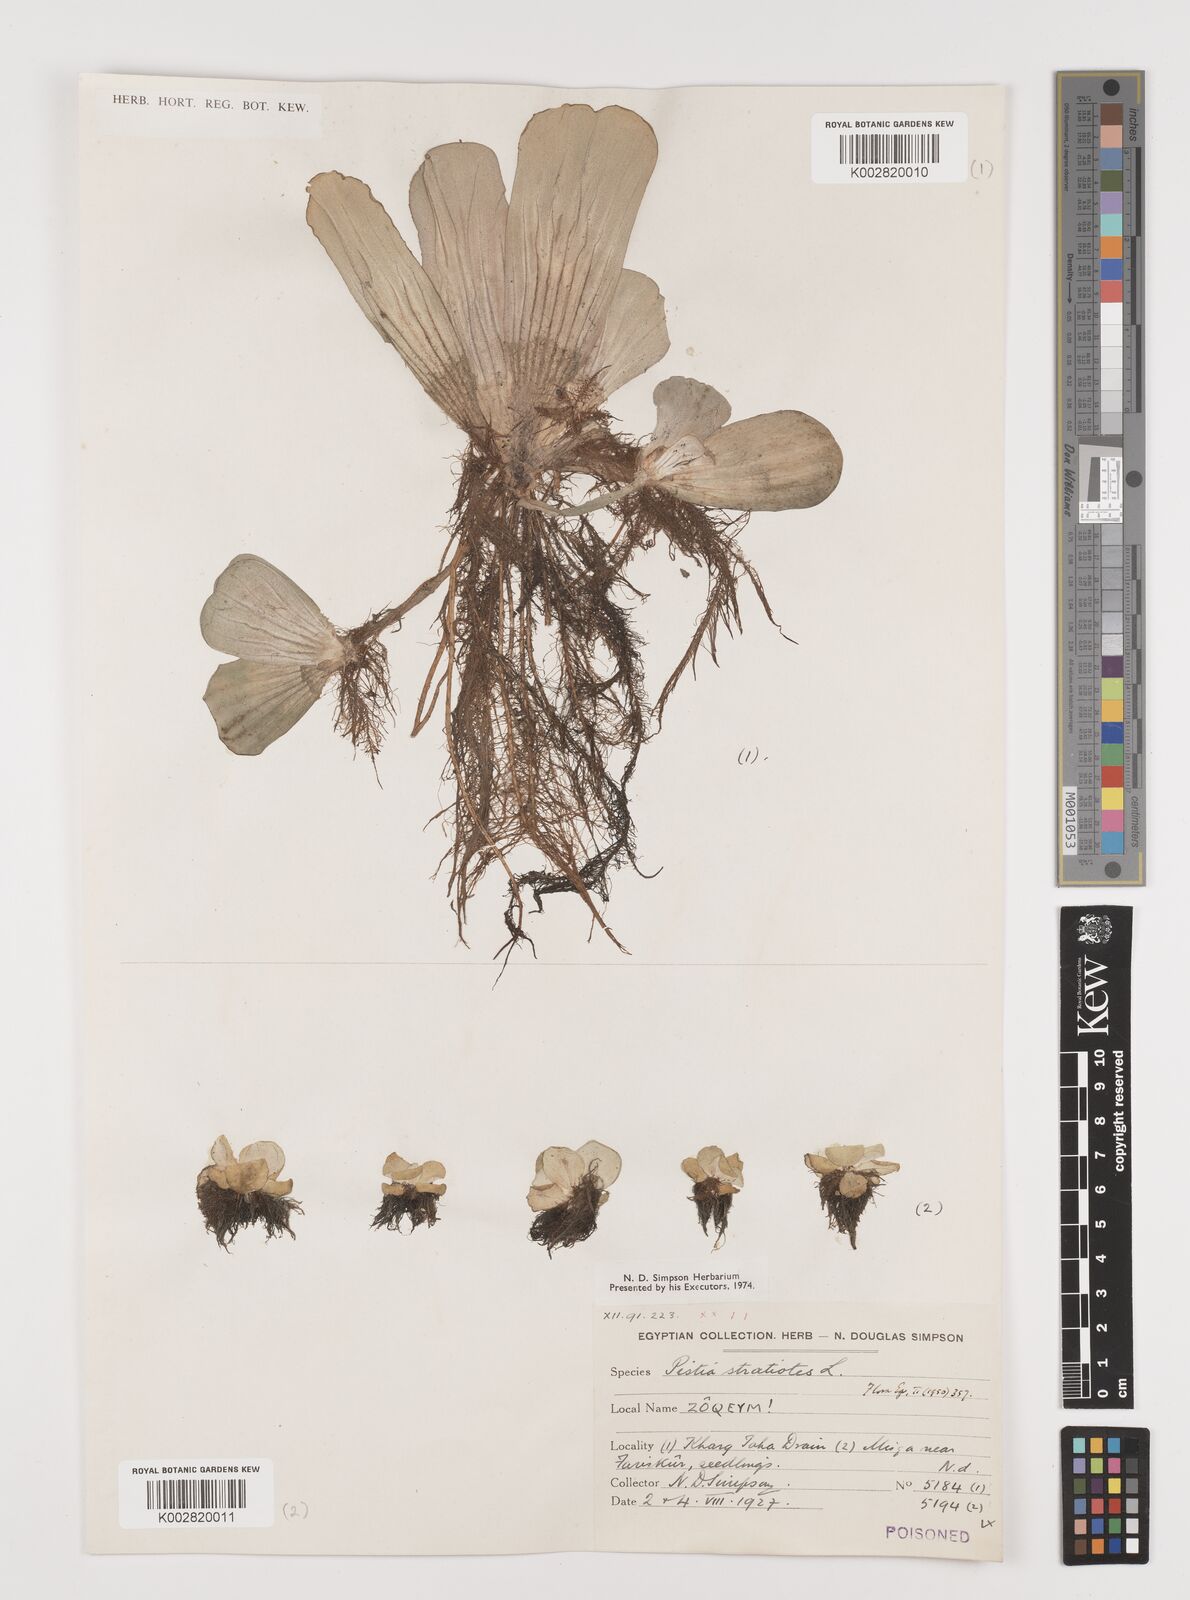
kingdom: Plantae
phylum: Tracheophyta
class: Liliopsida
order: Alismatales
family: Araceae
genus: Pistia
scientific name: Pistia stratiotes
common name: Water lettuce
